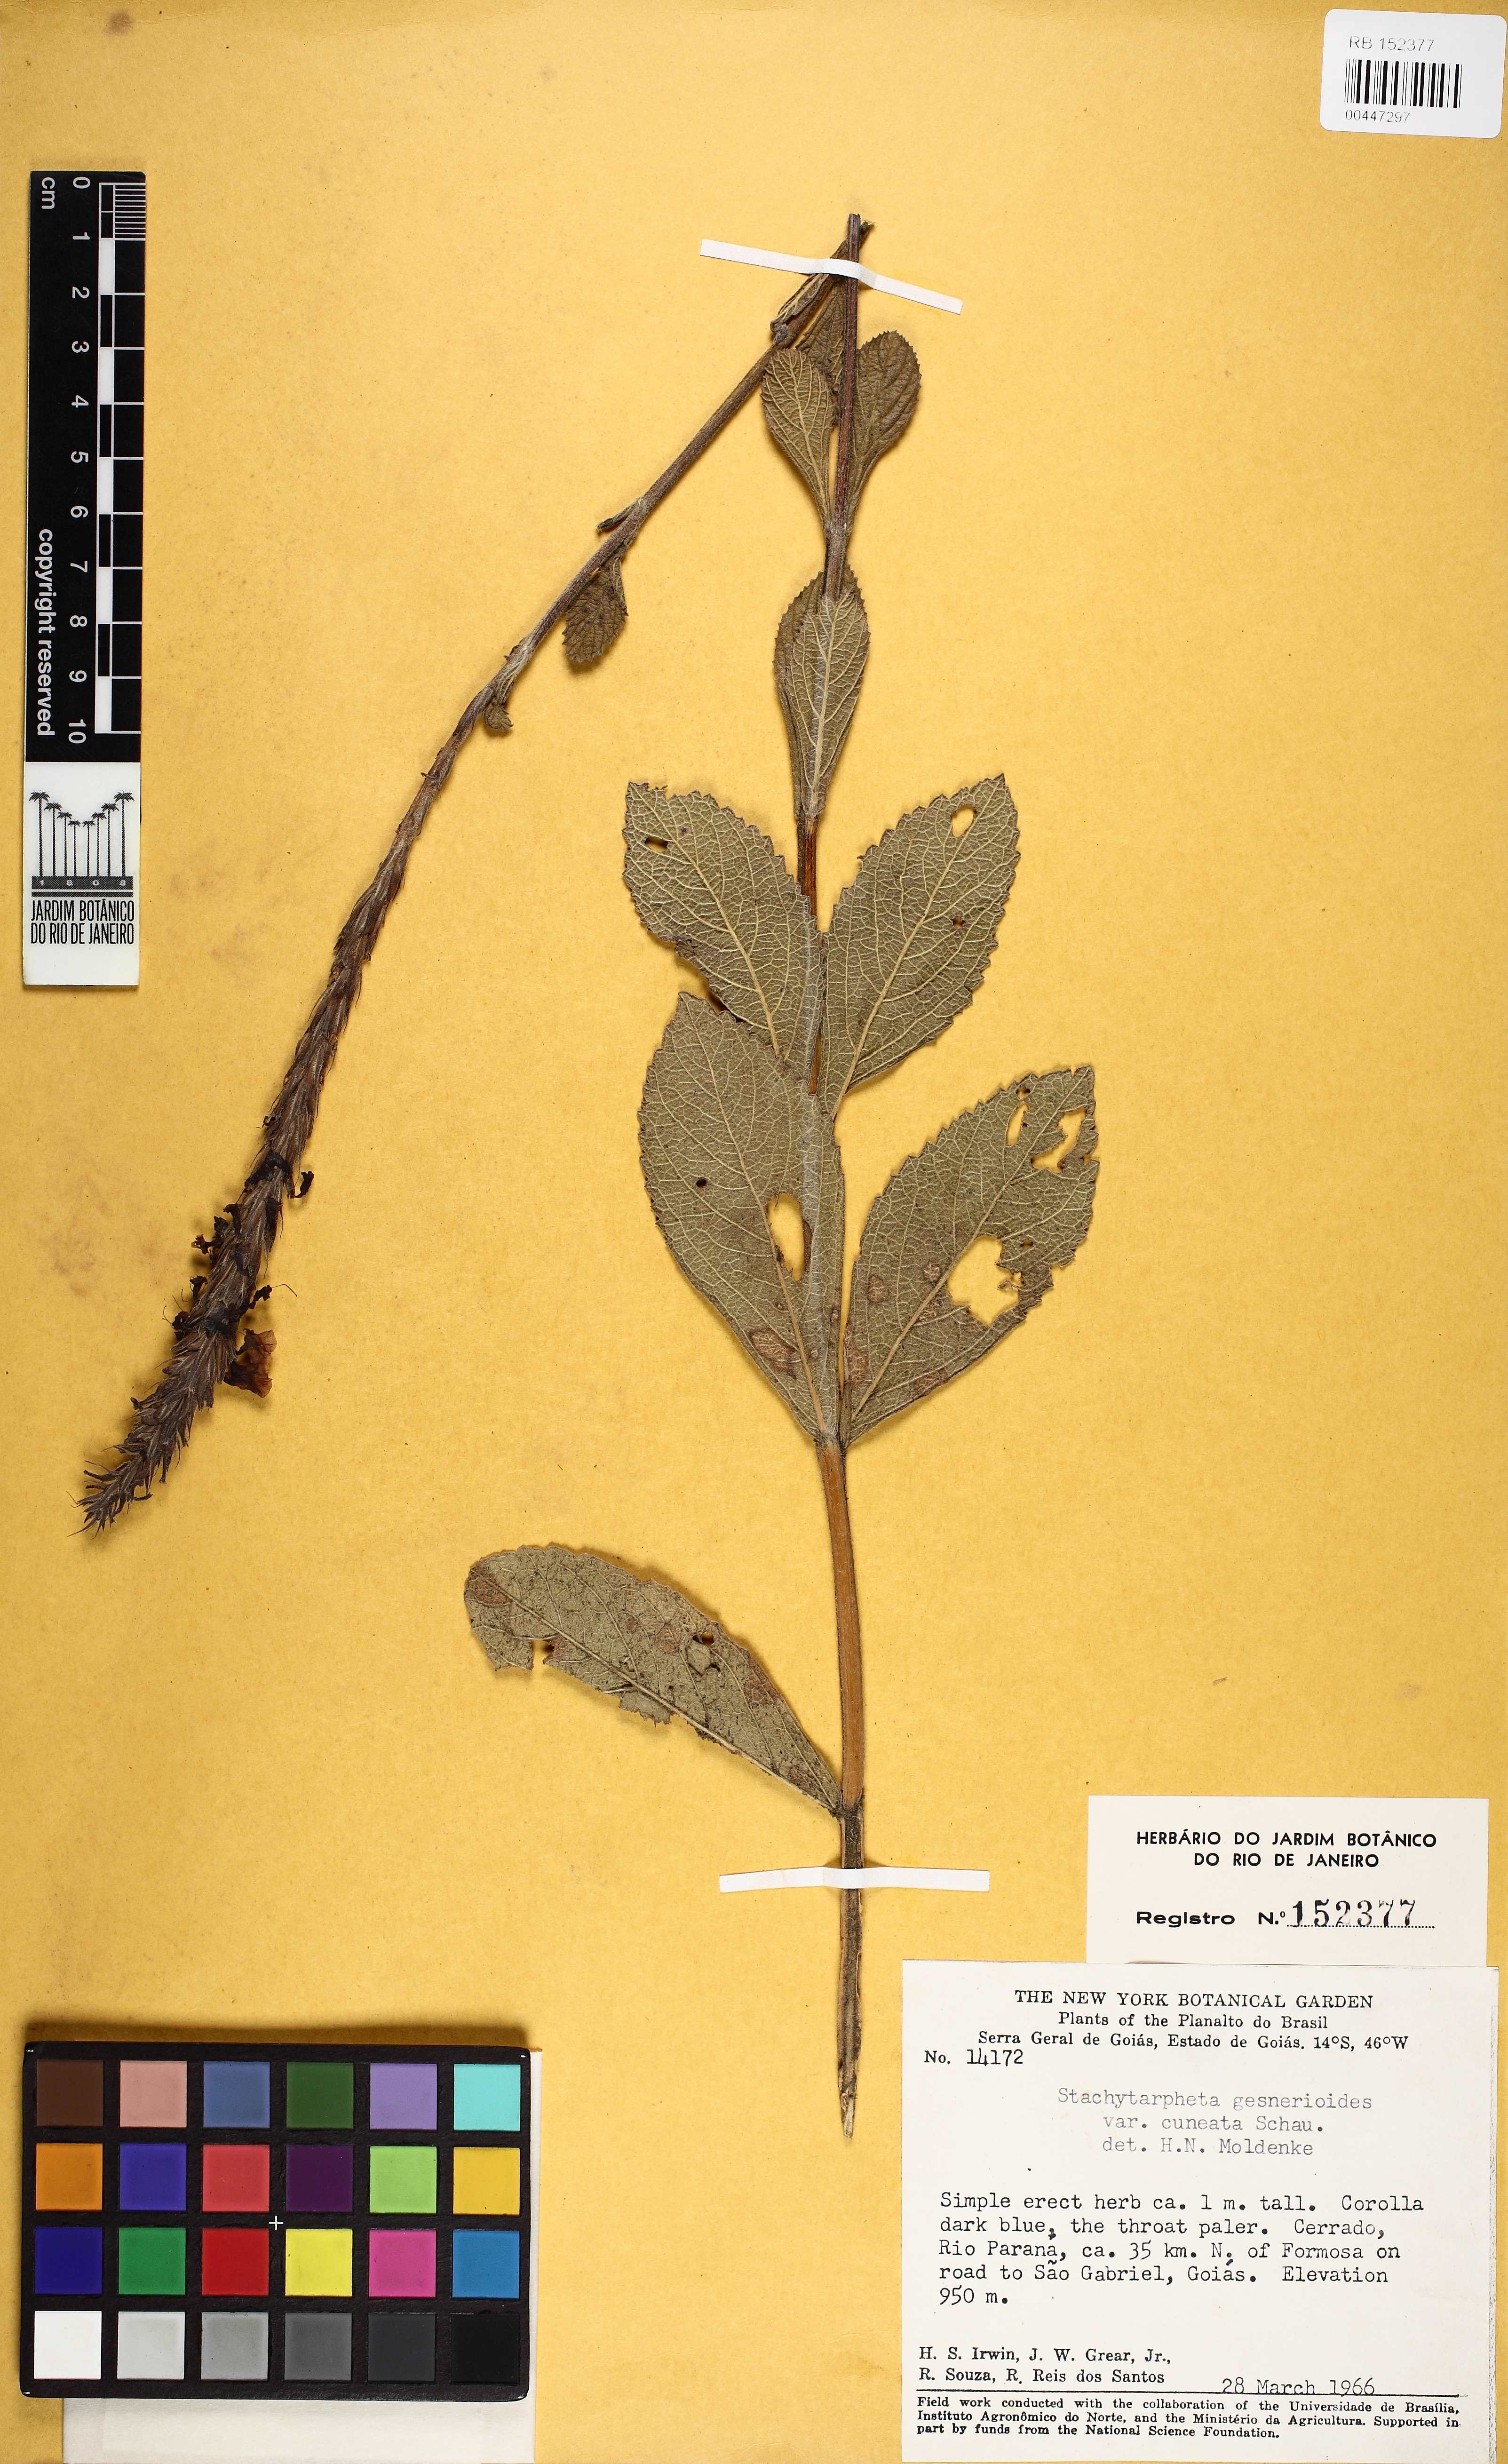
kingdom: Plantae
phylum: Tracheophyta
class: Magnoliopsida
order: Lamiales
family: Verbenaceae
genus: Stachytarpheta
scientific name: Stachytarpheta gesnerioides
